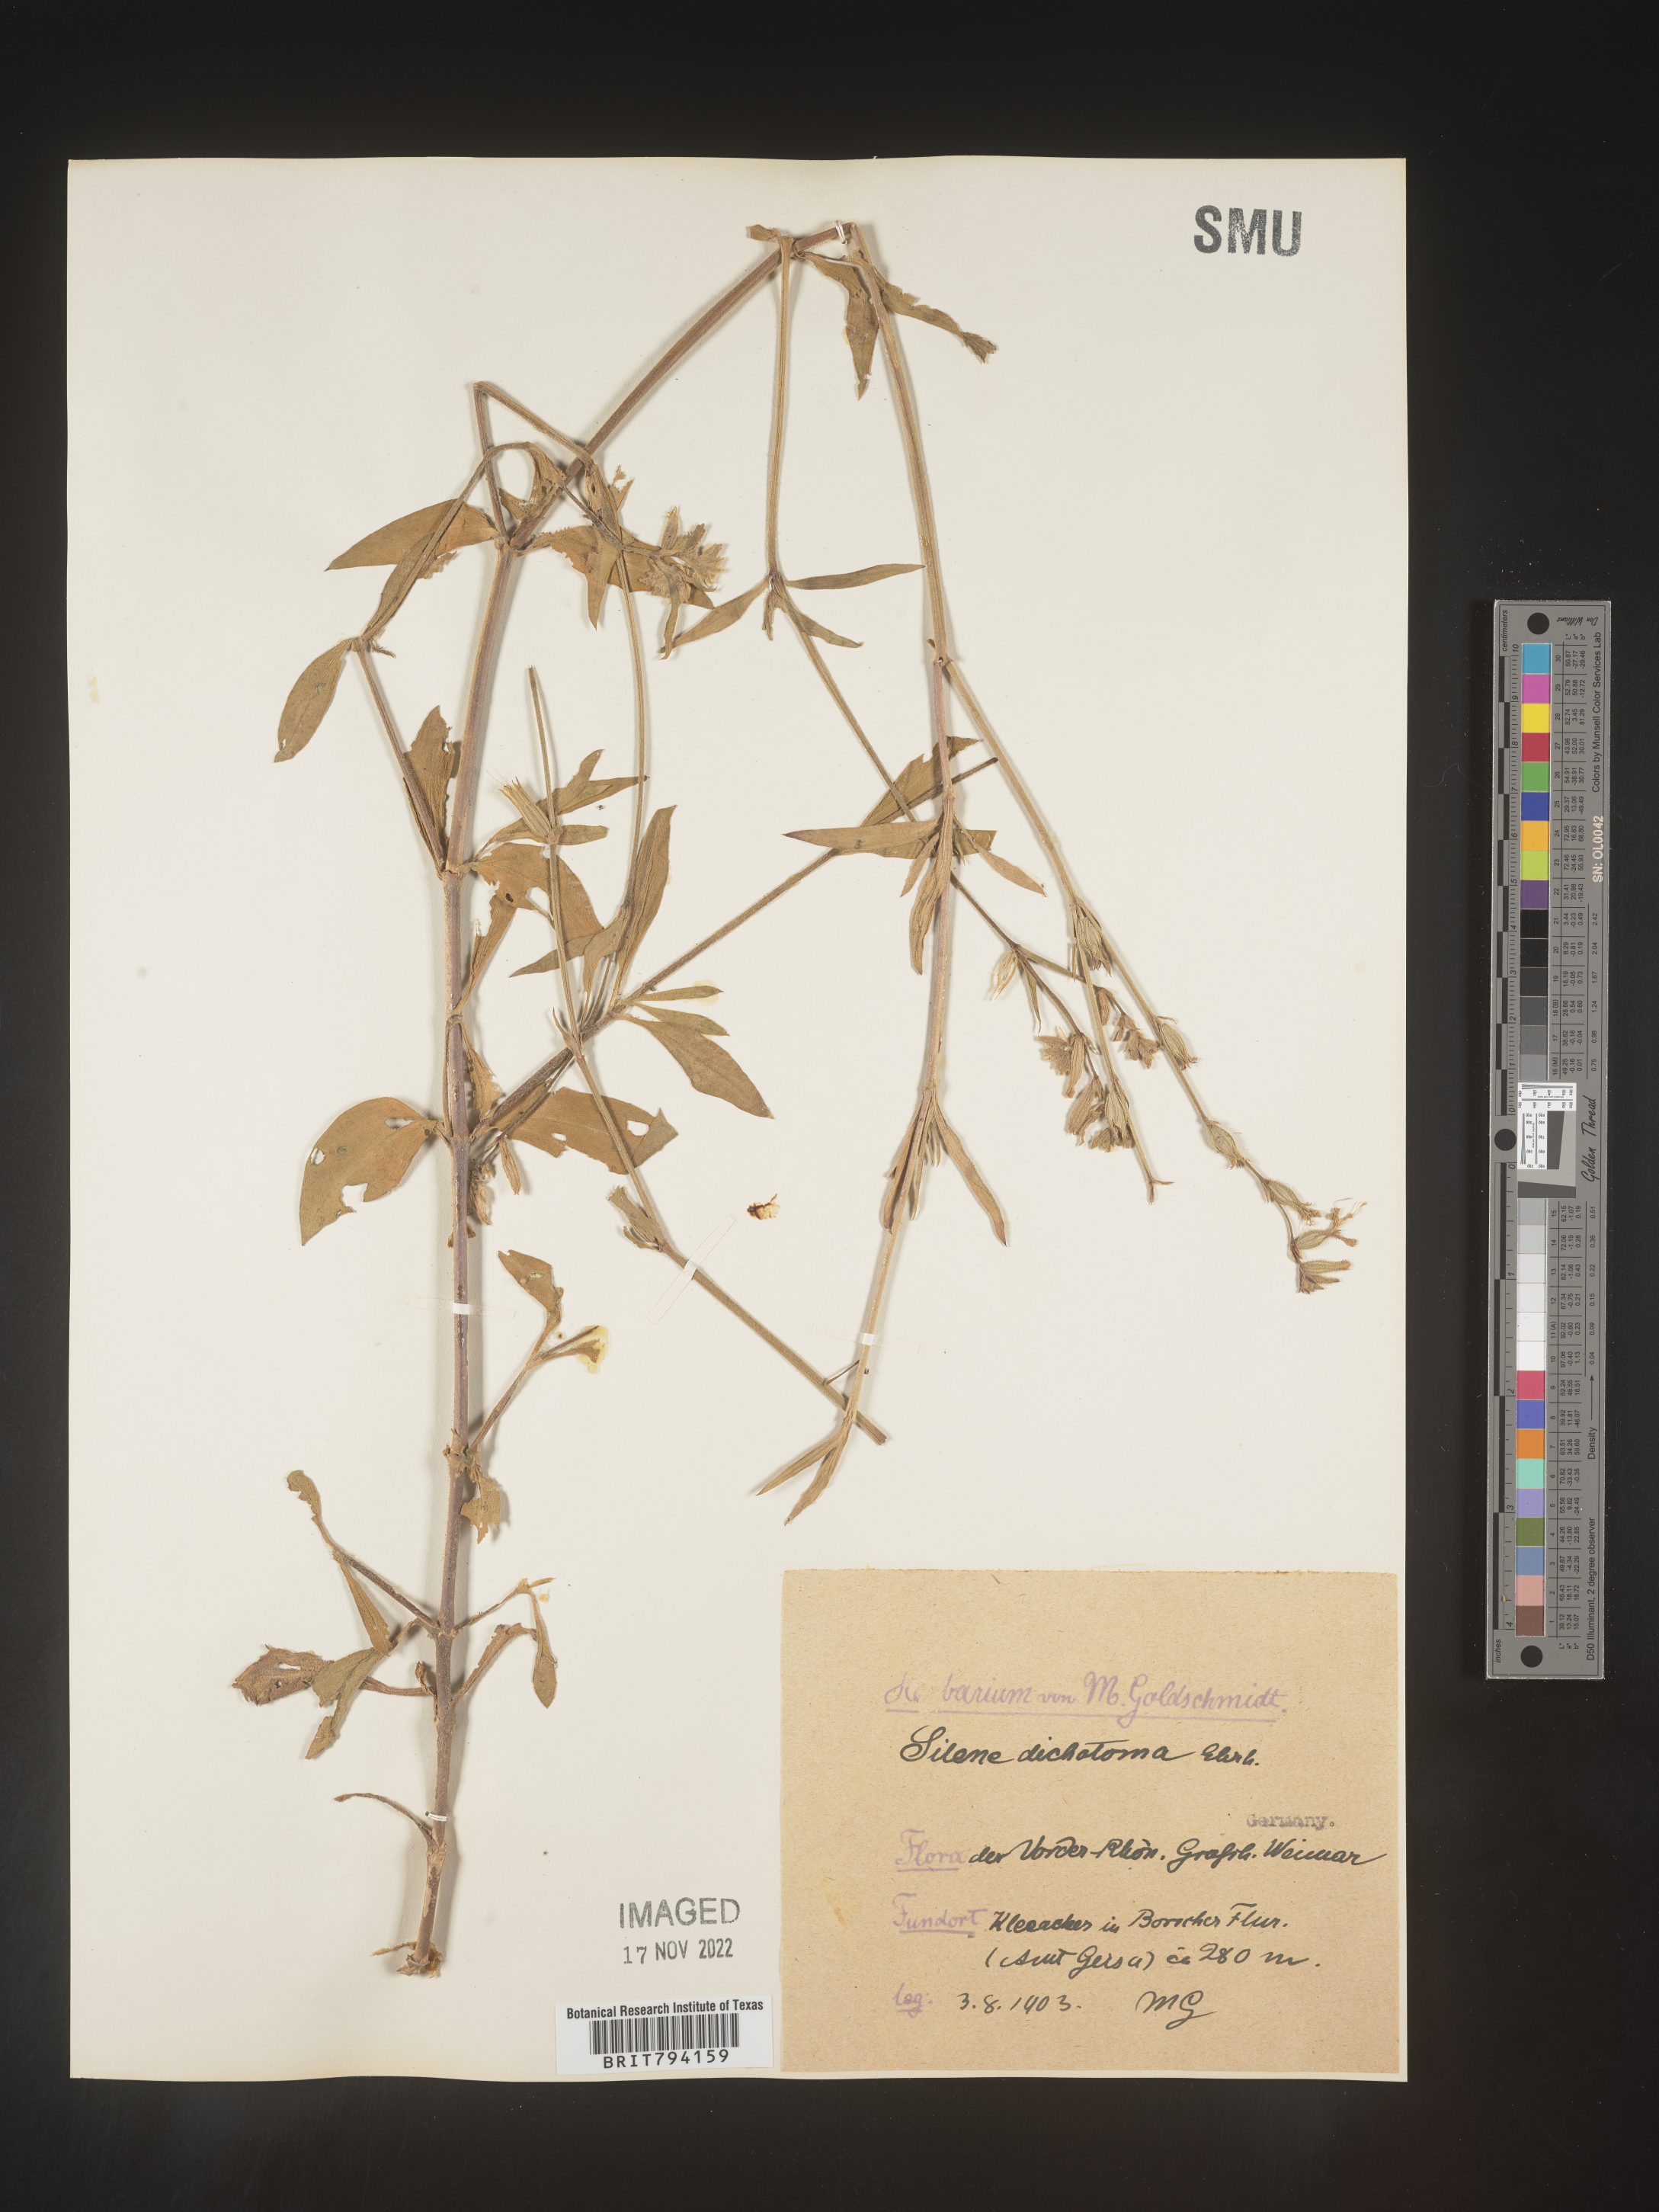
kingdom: Plantae
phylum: Tracheophyta
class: Magnoliopsida
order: Caryophyllales
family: Caryophyllaceae
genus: Silene
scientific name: Silene dichotoma
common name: Forked catchfly
